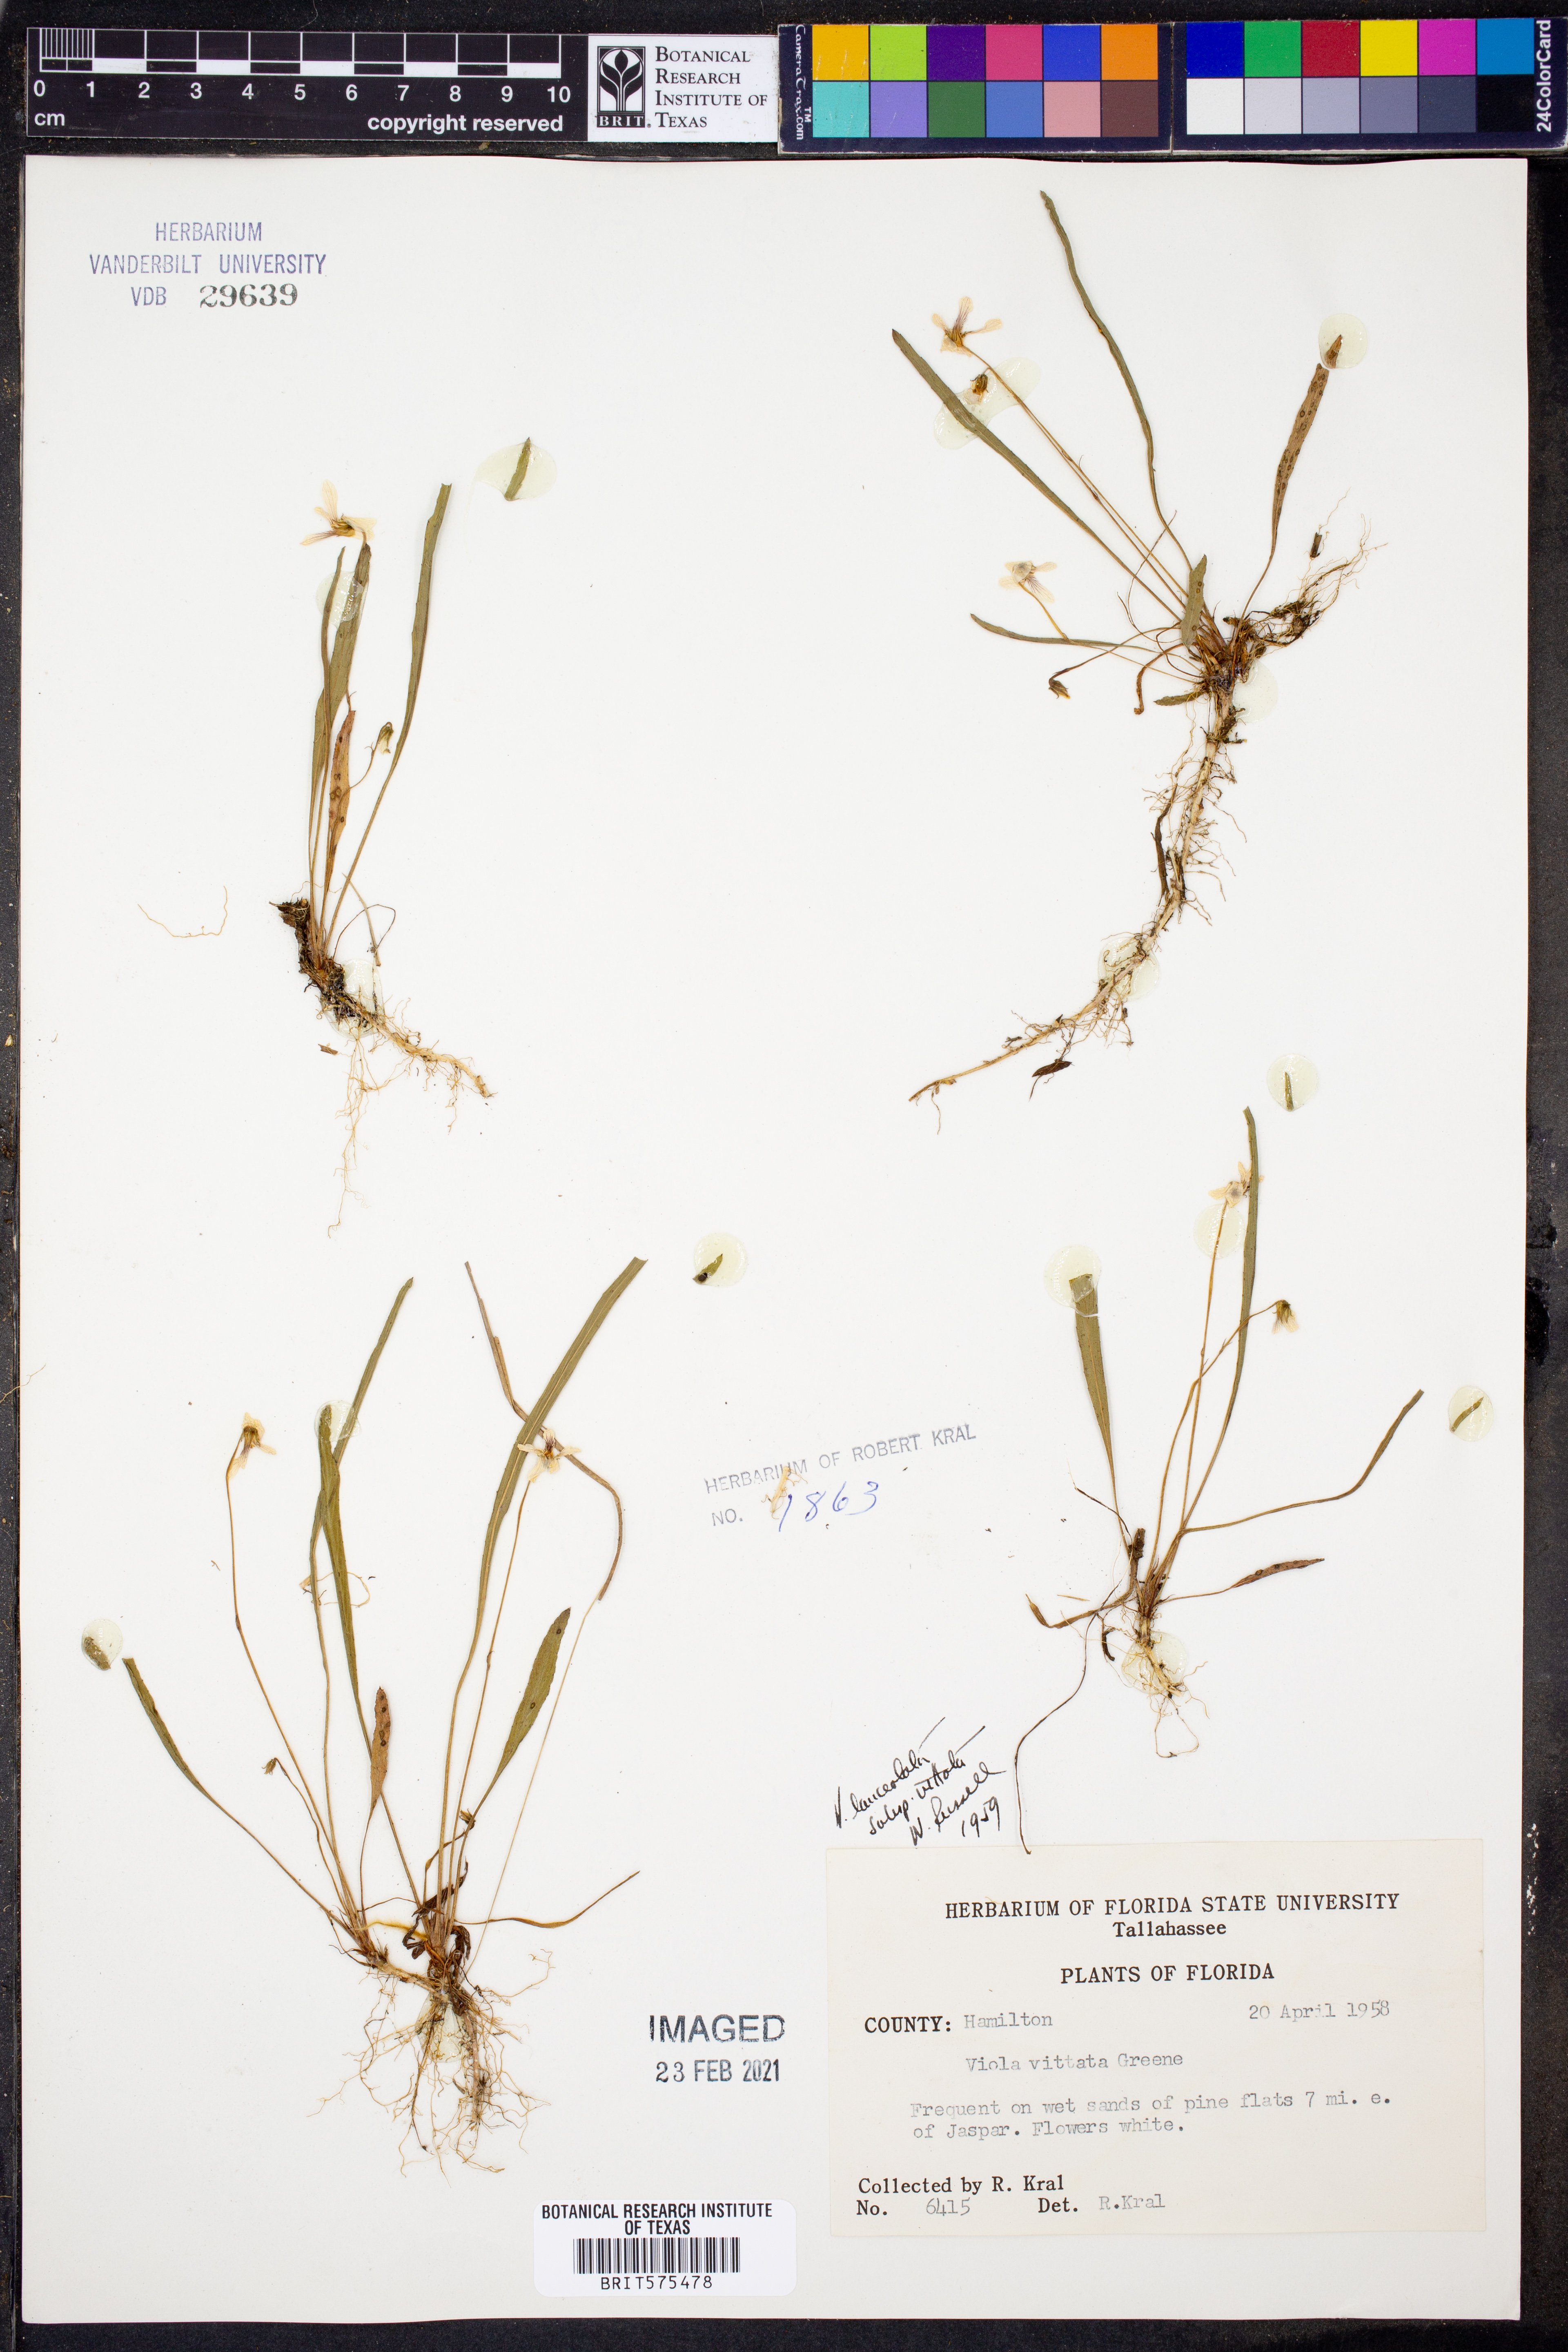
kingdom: Plantae
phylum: Tracheophyta
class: Magnoliopsida
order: Malpighiales
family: Violaceae
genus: Viola
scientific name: Viola vittata
